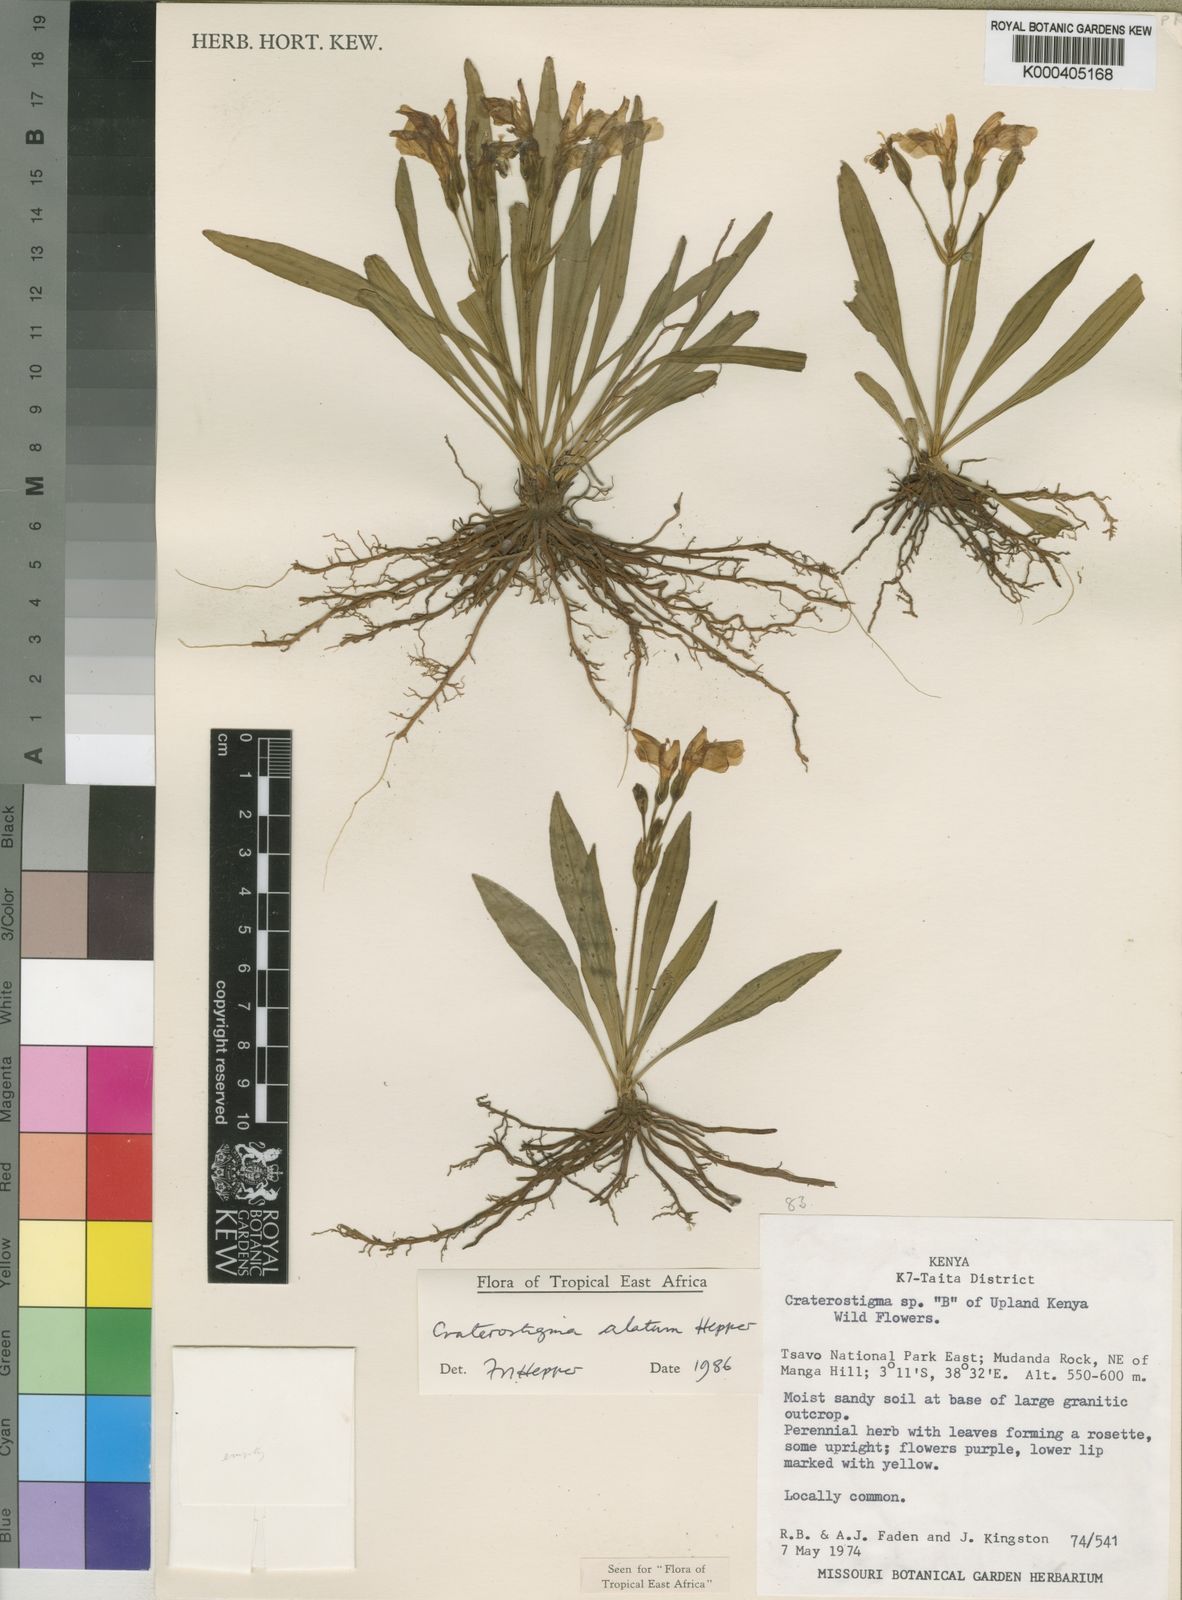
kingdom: Plantae
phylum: Tracheophyta
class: Magnoliopsida
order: Lamiales
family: Linderniaceae
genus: Craterostigma
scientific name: Craterostigma alatum
